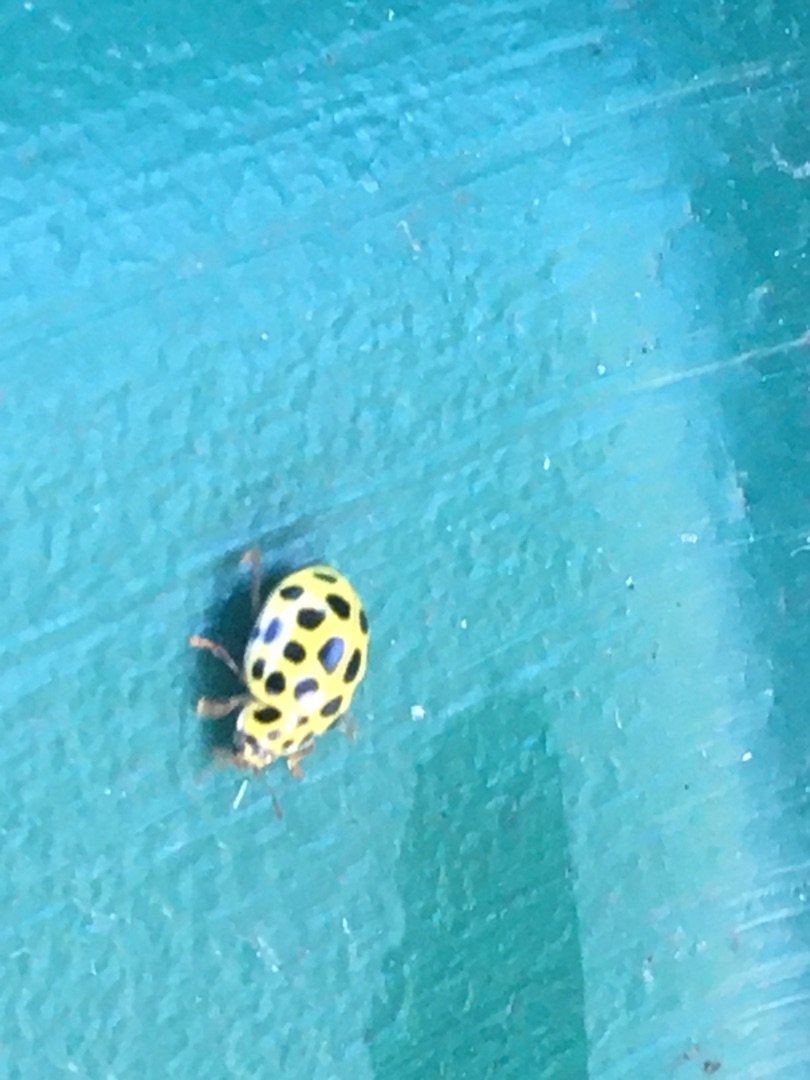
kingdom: Animalia
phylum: Arthropoda
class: Insecta
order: Coleoptera
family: Coccinellidae
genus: Psyllobora
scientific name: Psyllobora vigintiduopunctata
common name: Toogtyveplettet mariehøne
